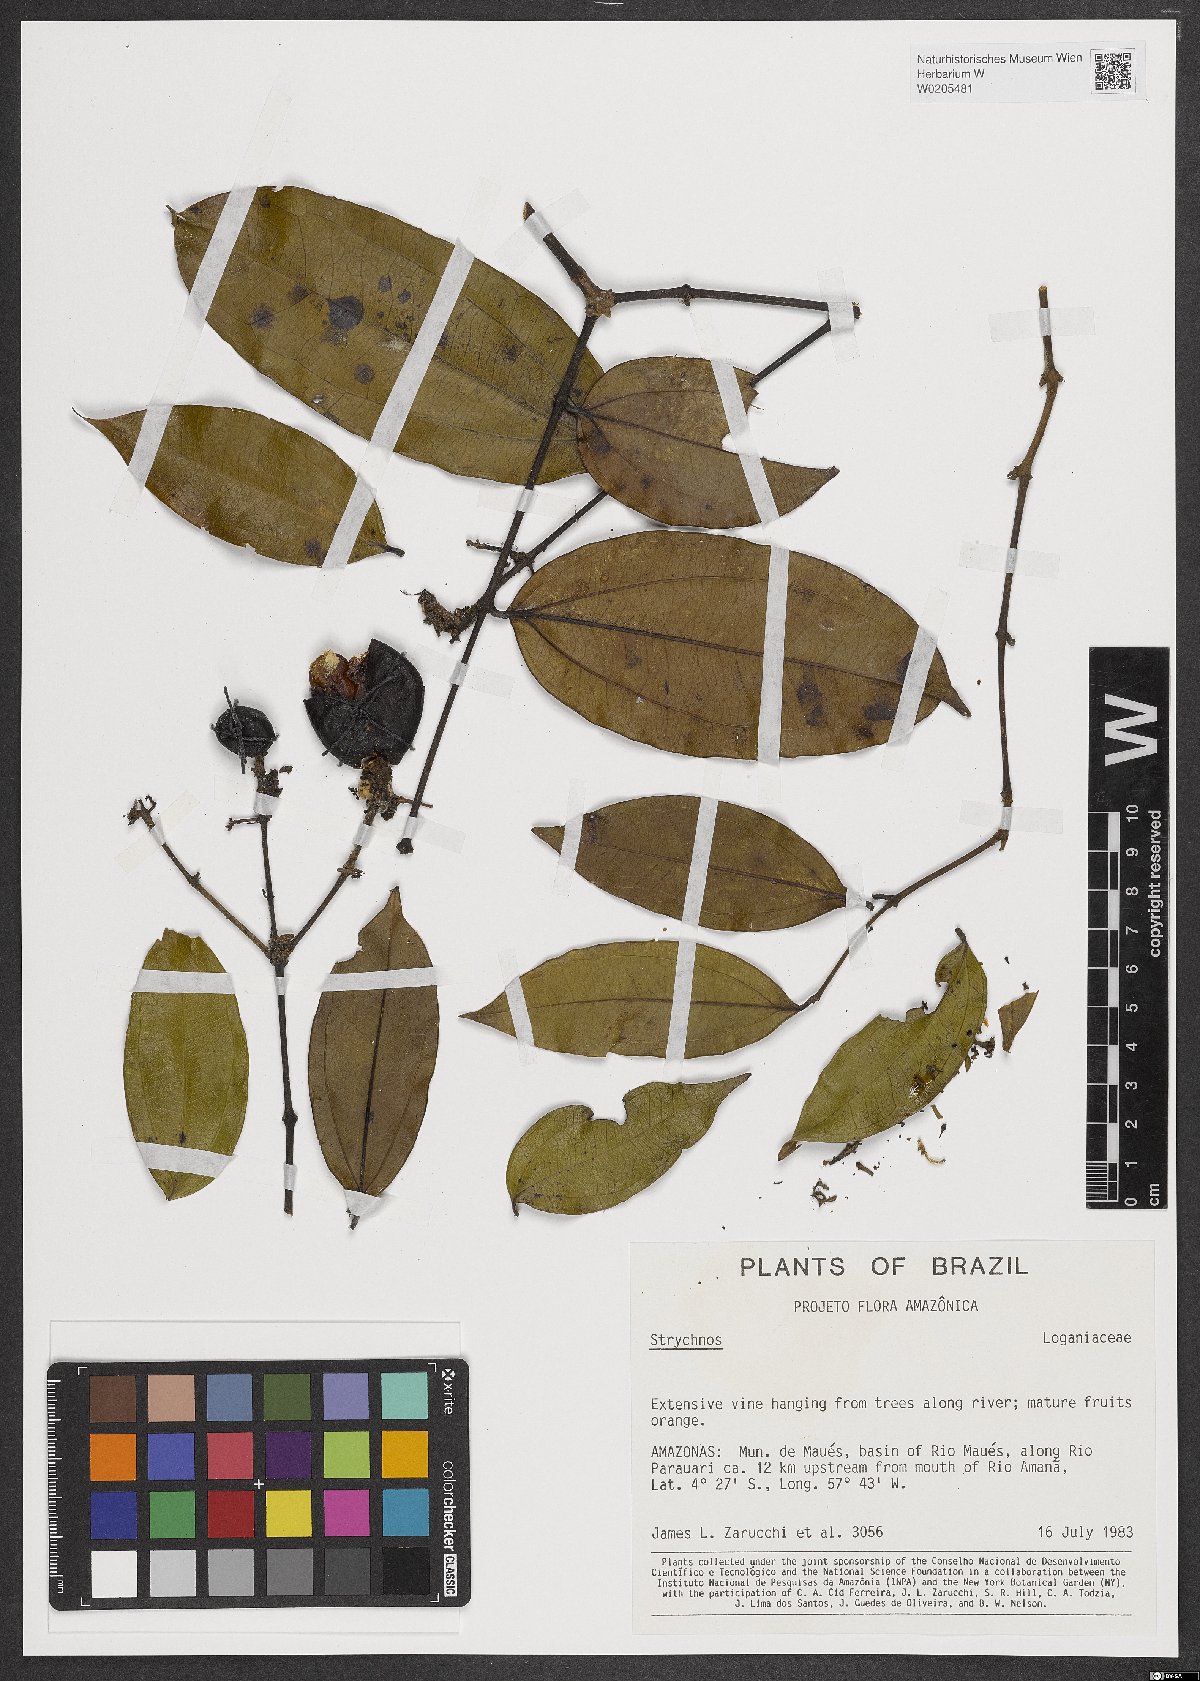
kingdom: Plantae
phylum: Tracheophyta
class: Magnoliopsida
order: Gentianales
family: Loganiaceae
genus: Strychnos
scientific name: Strychnos
